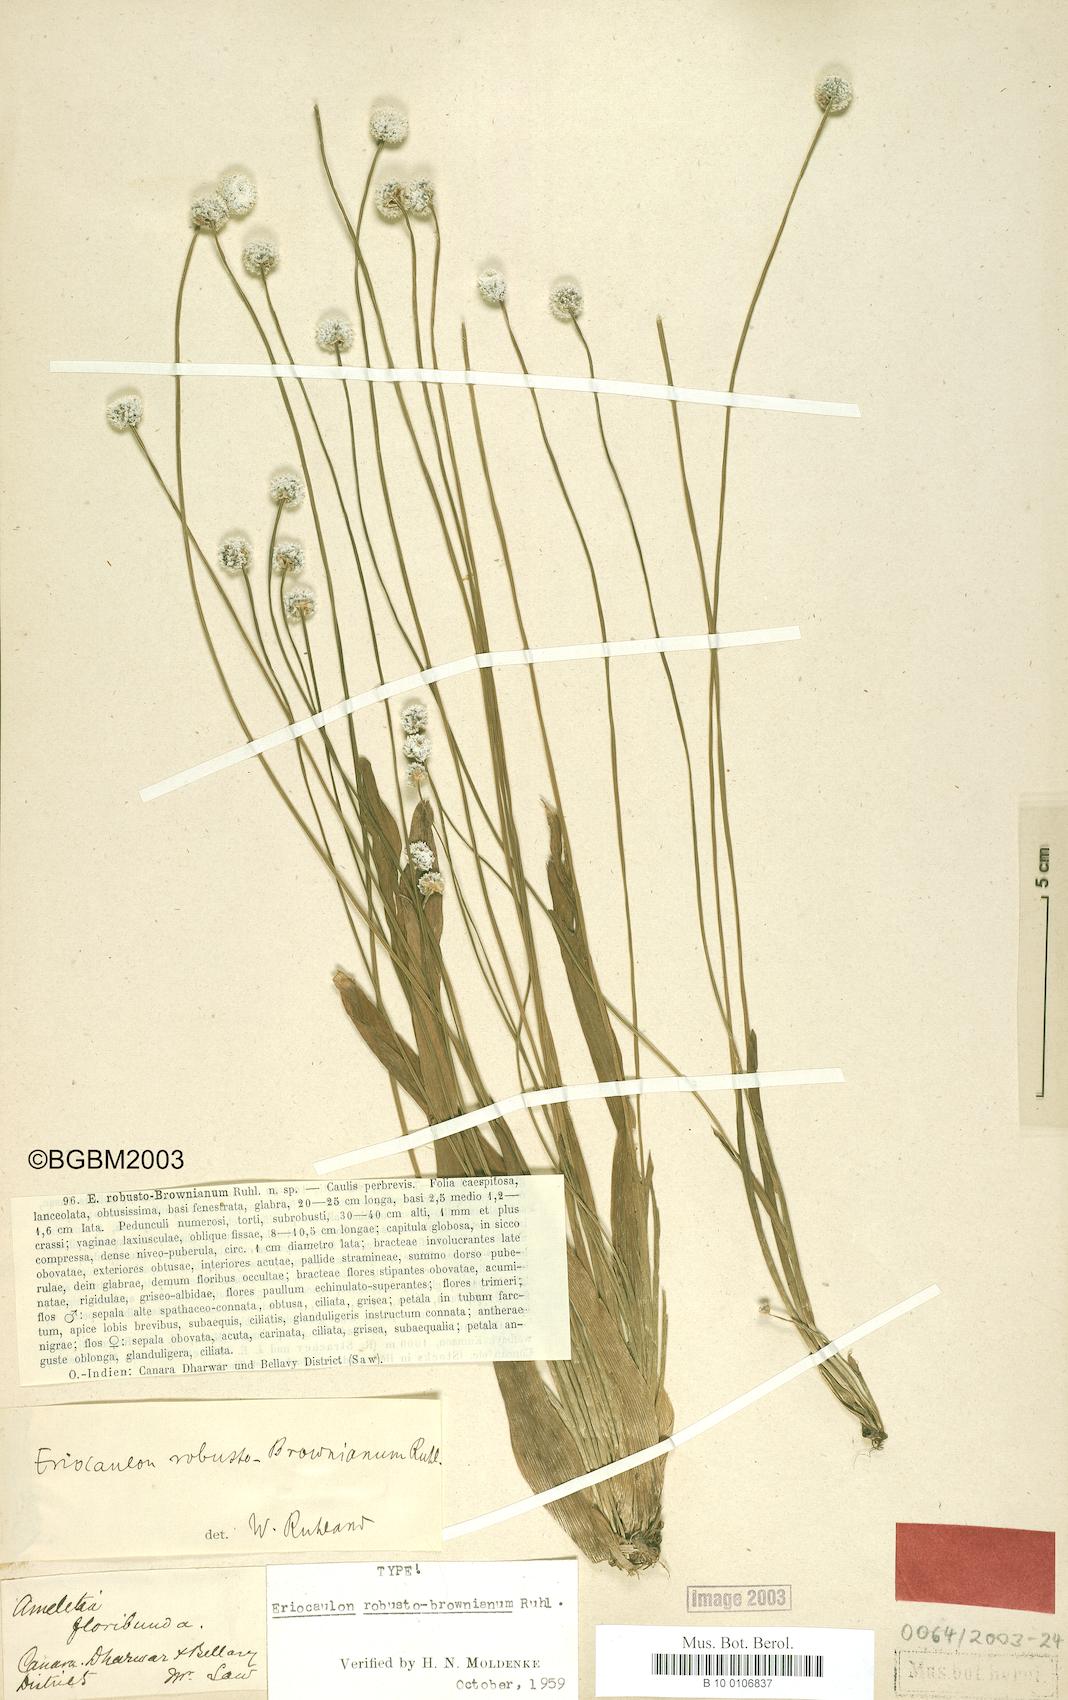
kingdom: Plantae
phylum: Tracheophyta
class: Liliopsida
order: Poales
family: Eriocaulaceae
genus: Eriocaulon
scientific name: Eriocaulon robustobrownianum
